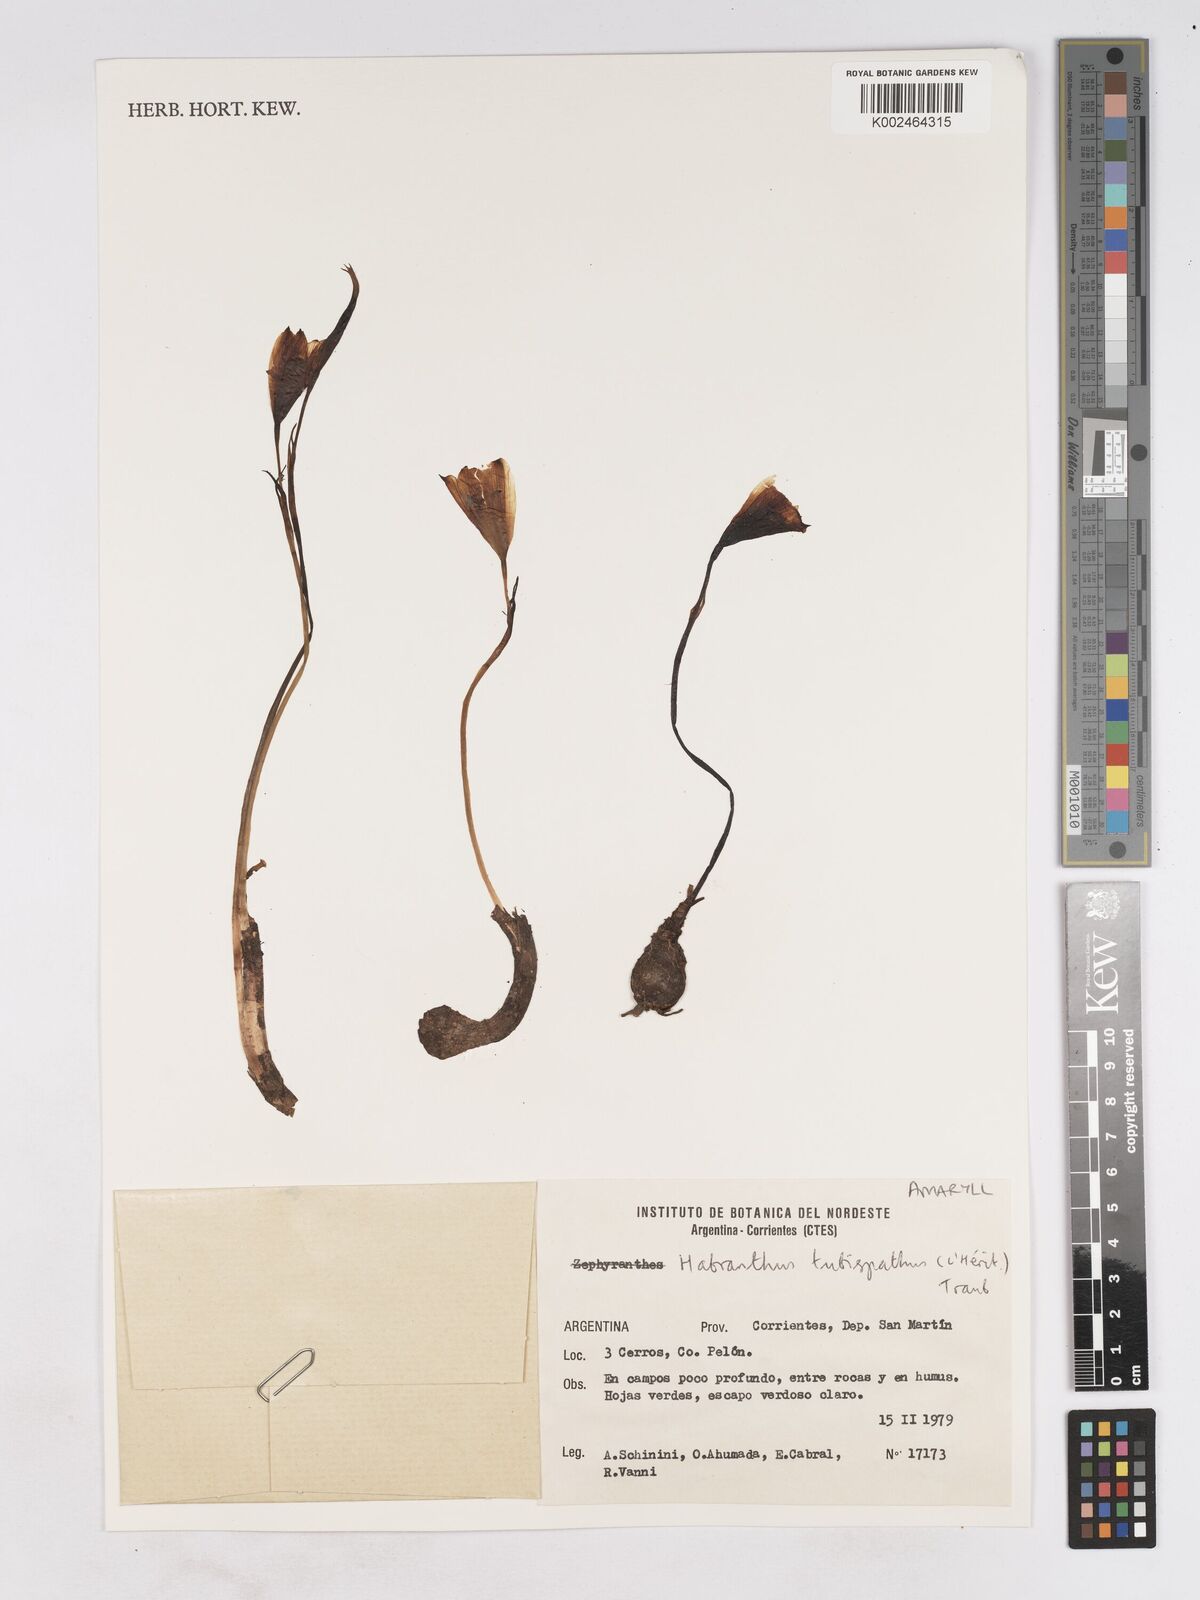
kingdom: Plantae
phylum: Tracheophyta
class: Liliopsida
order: Asparagales
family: Amaryllidaceae
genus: Zephyranthes
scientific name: Zephyranthes tubispatha
